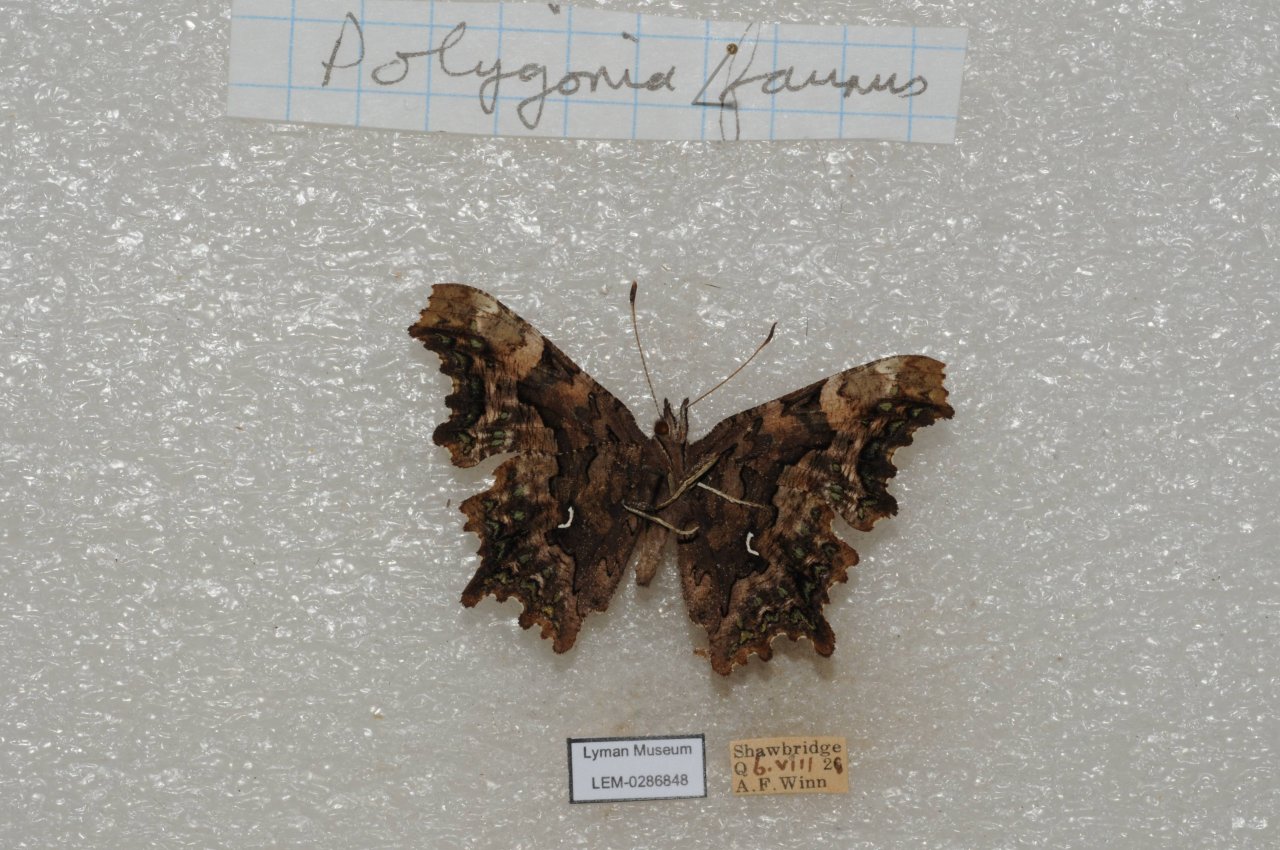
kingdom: Animalia
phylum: Arthropoda
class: Insecta
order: Lepidoptera
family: Nymphalidae
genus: Polygonia
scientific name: Polygonia faunus
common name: Green Comma
